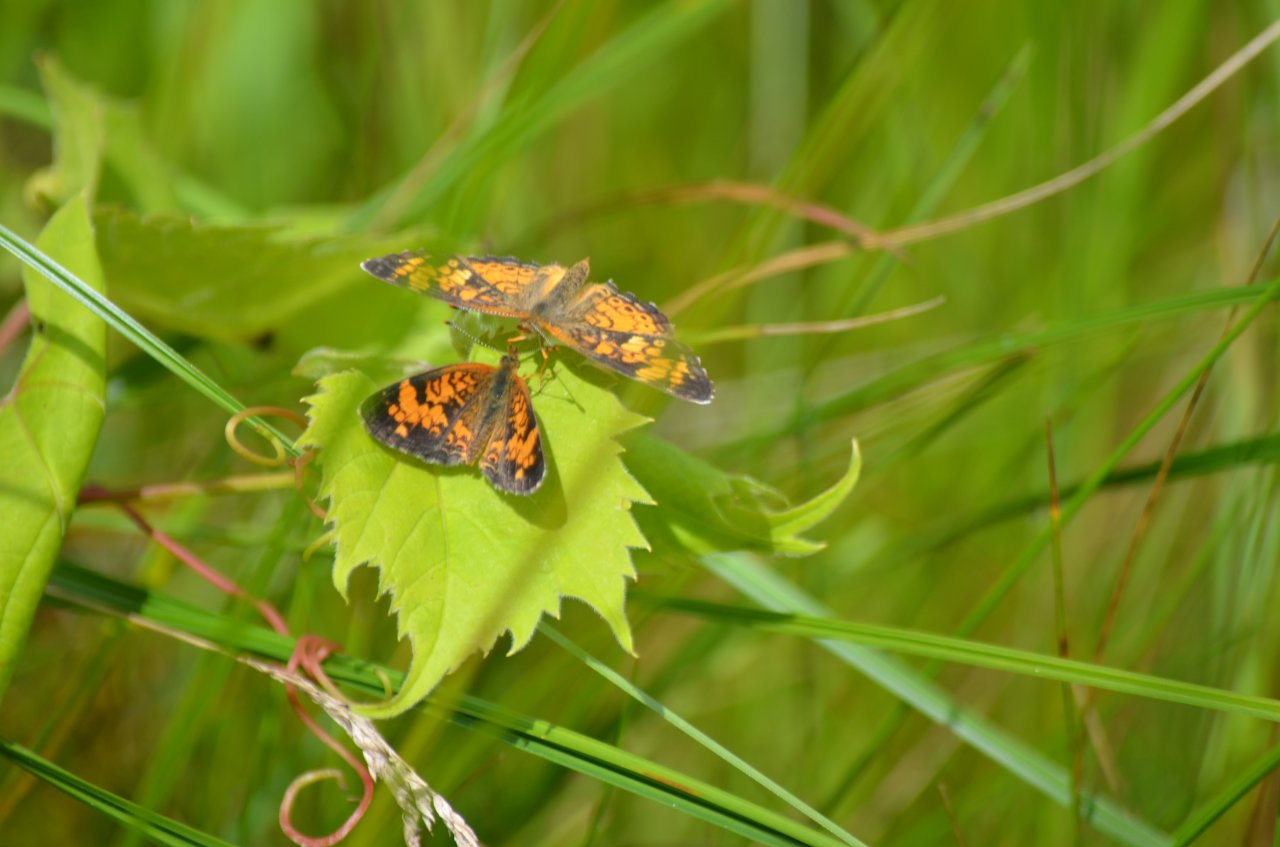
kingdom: Animalia
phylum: Arthropoda
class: Insecta
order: Lepidoptera
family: Nymphalidae
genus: Phyciodes
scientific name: Phyciodes tharos
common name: Northern Crescent
